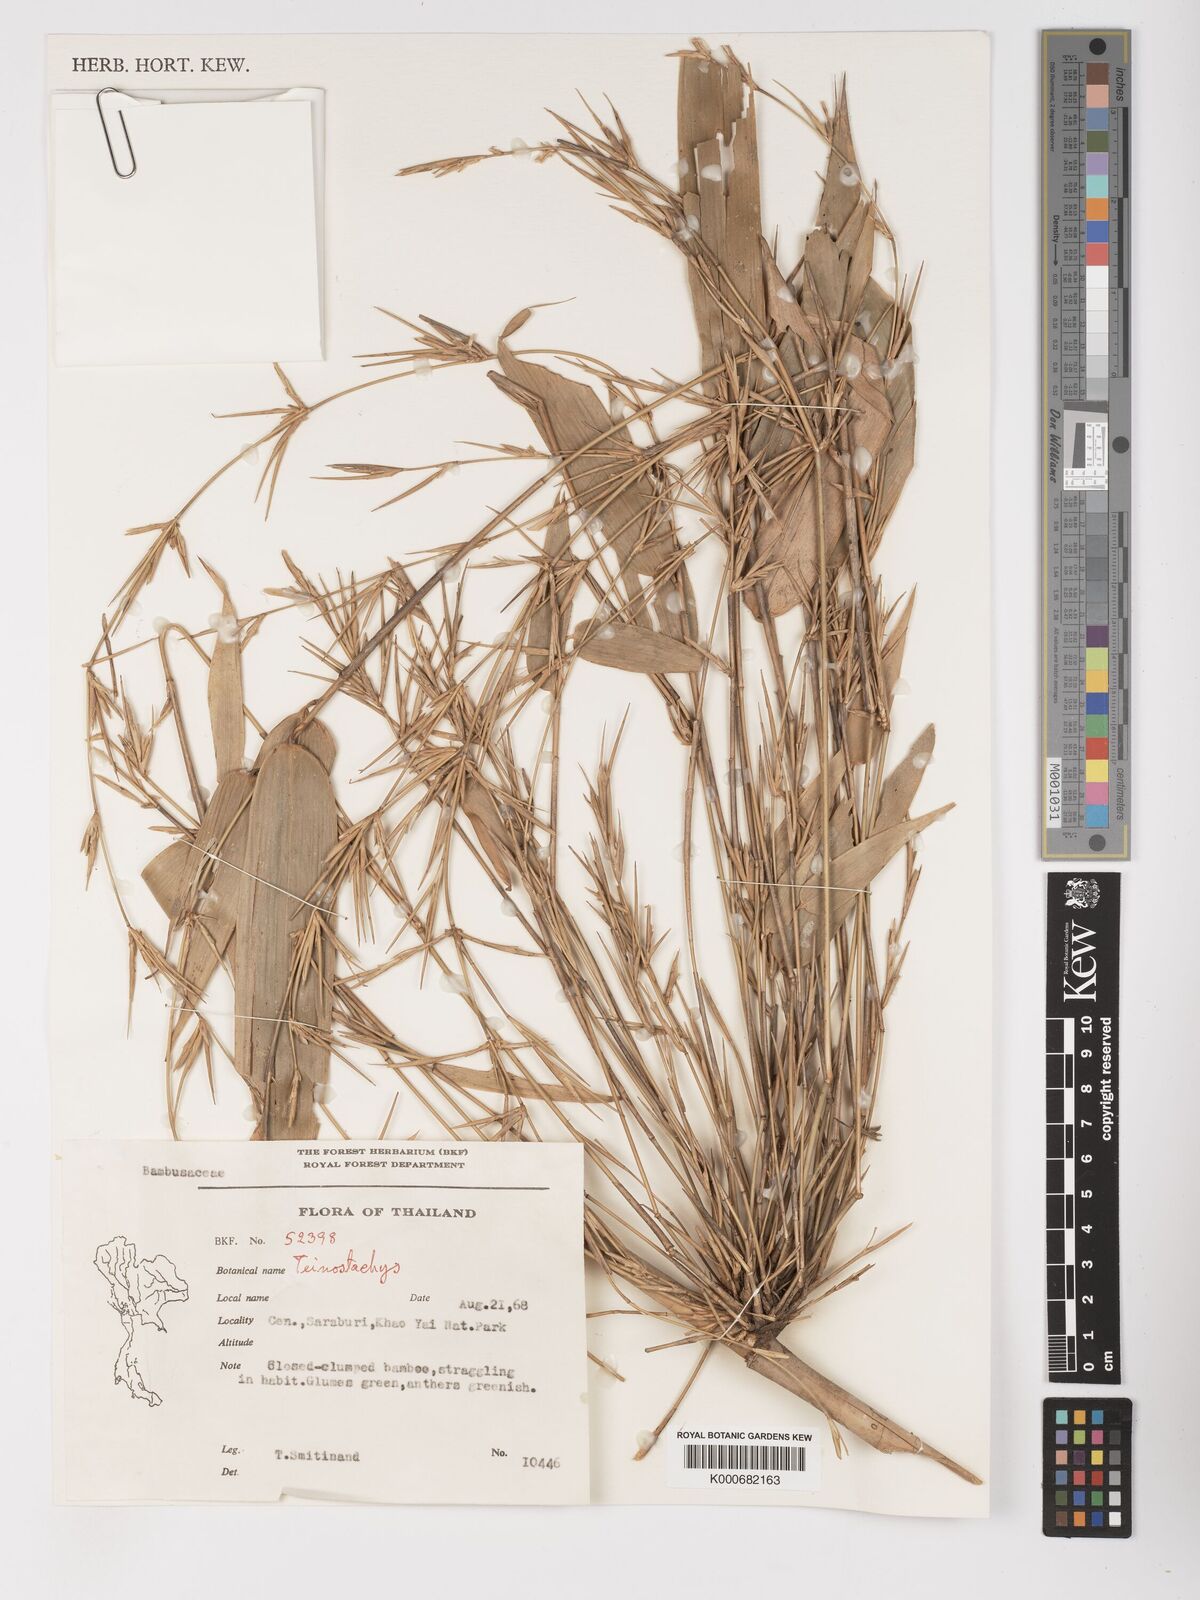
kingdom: Plantae
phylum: Tracheophyta
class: Liliopsida
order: Poales
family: Poaceae
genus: Schizostachyum
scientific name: Schizostachyum
